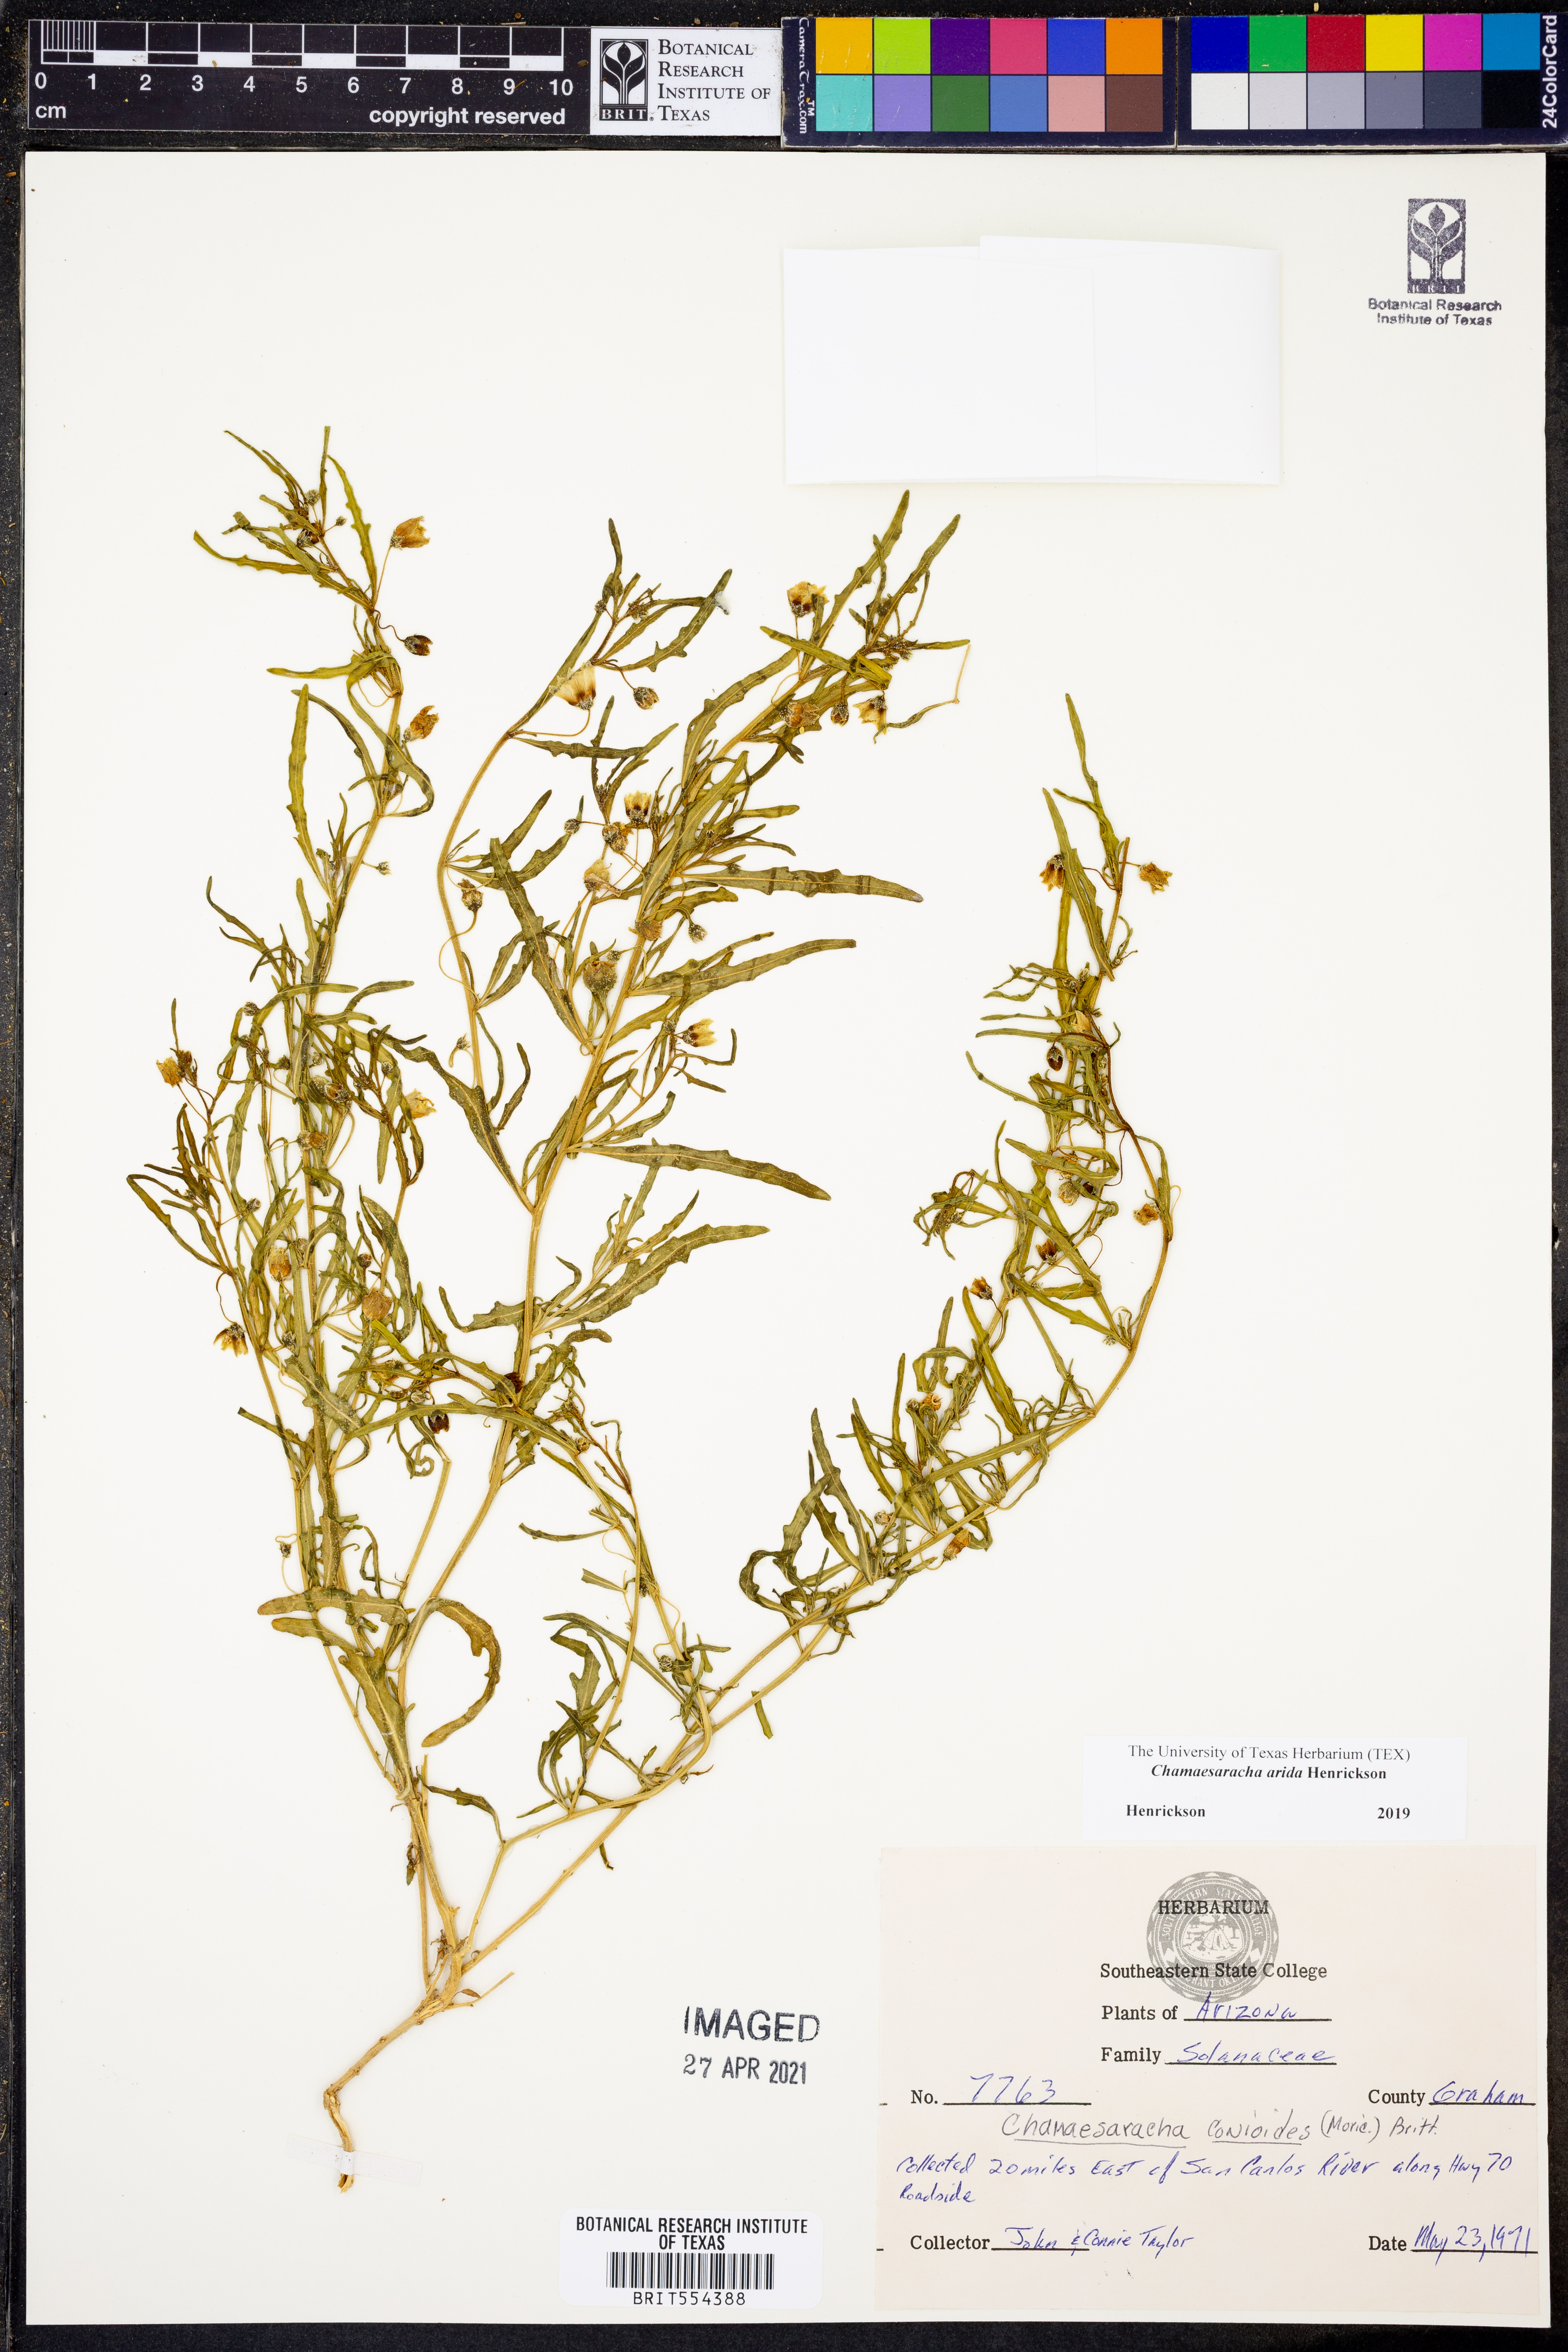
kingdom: Plantae
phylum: Tracheophyta
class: Magnoliopsida
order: Solanales
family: Solanaceae
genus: Chamaesaracha
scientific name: Chamaesaracha arida
